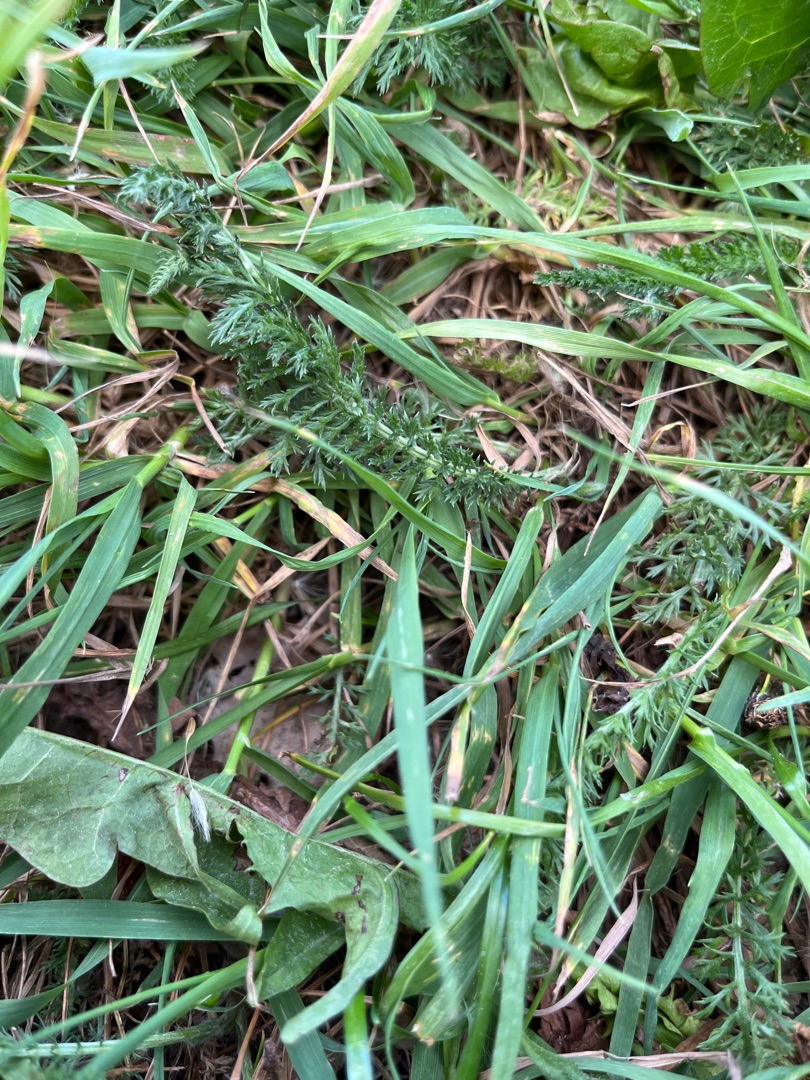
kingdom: Plantae
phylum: Tracheophyta
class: Magnoliopsida
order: Asterales
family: Asteraceae
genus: Achillea
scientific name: Achillea millefolium
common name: Almindelig røllike
